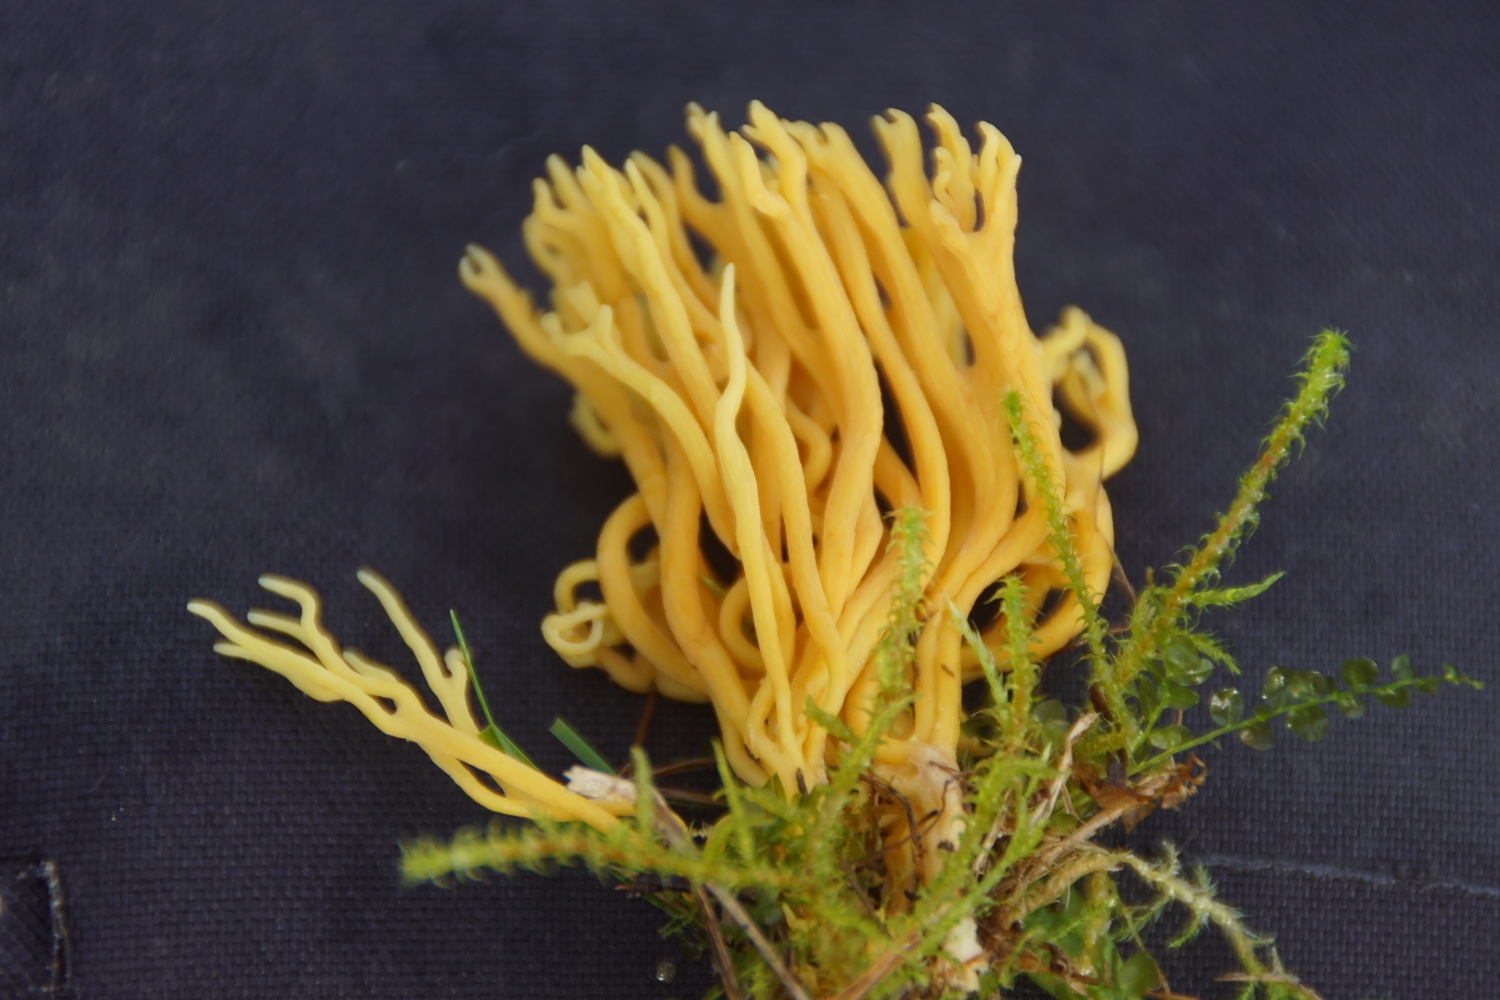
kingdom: Fungi
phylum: Basidiomycota
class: Agaricomycetes
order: Agaricales
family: Clavariaceae
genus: Clavulinopsis
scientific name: Clavulinopsis corniculata
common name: eng-køllesvamp
